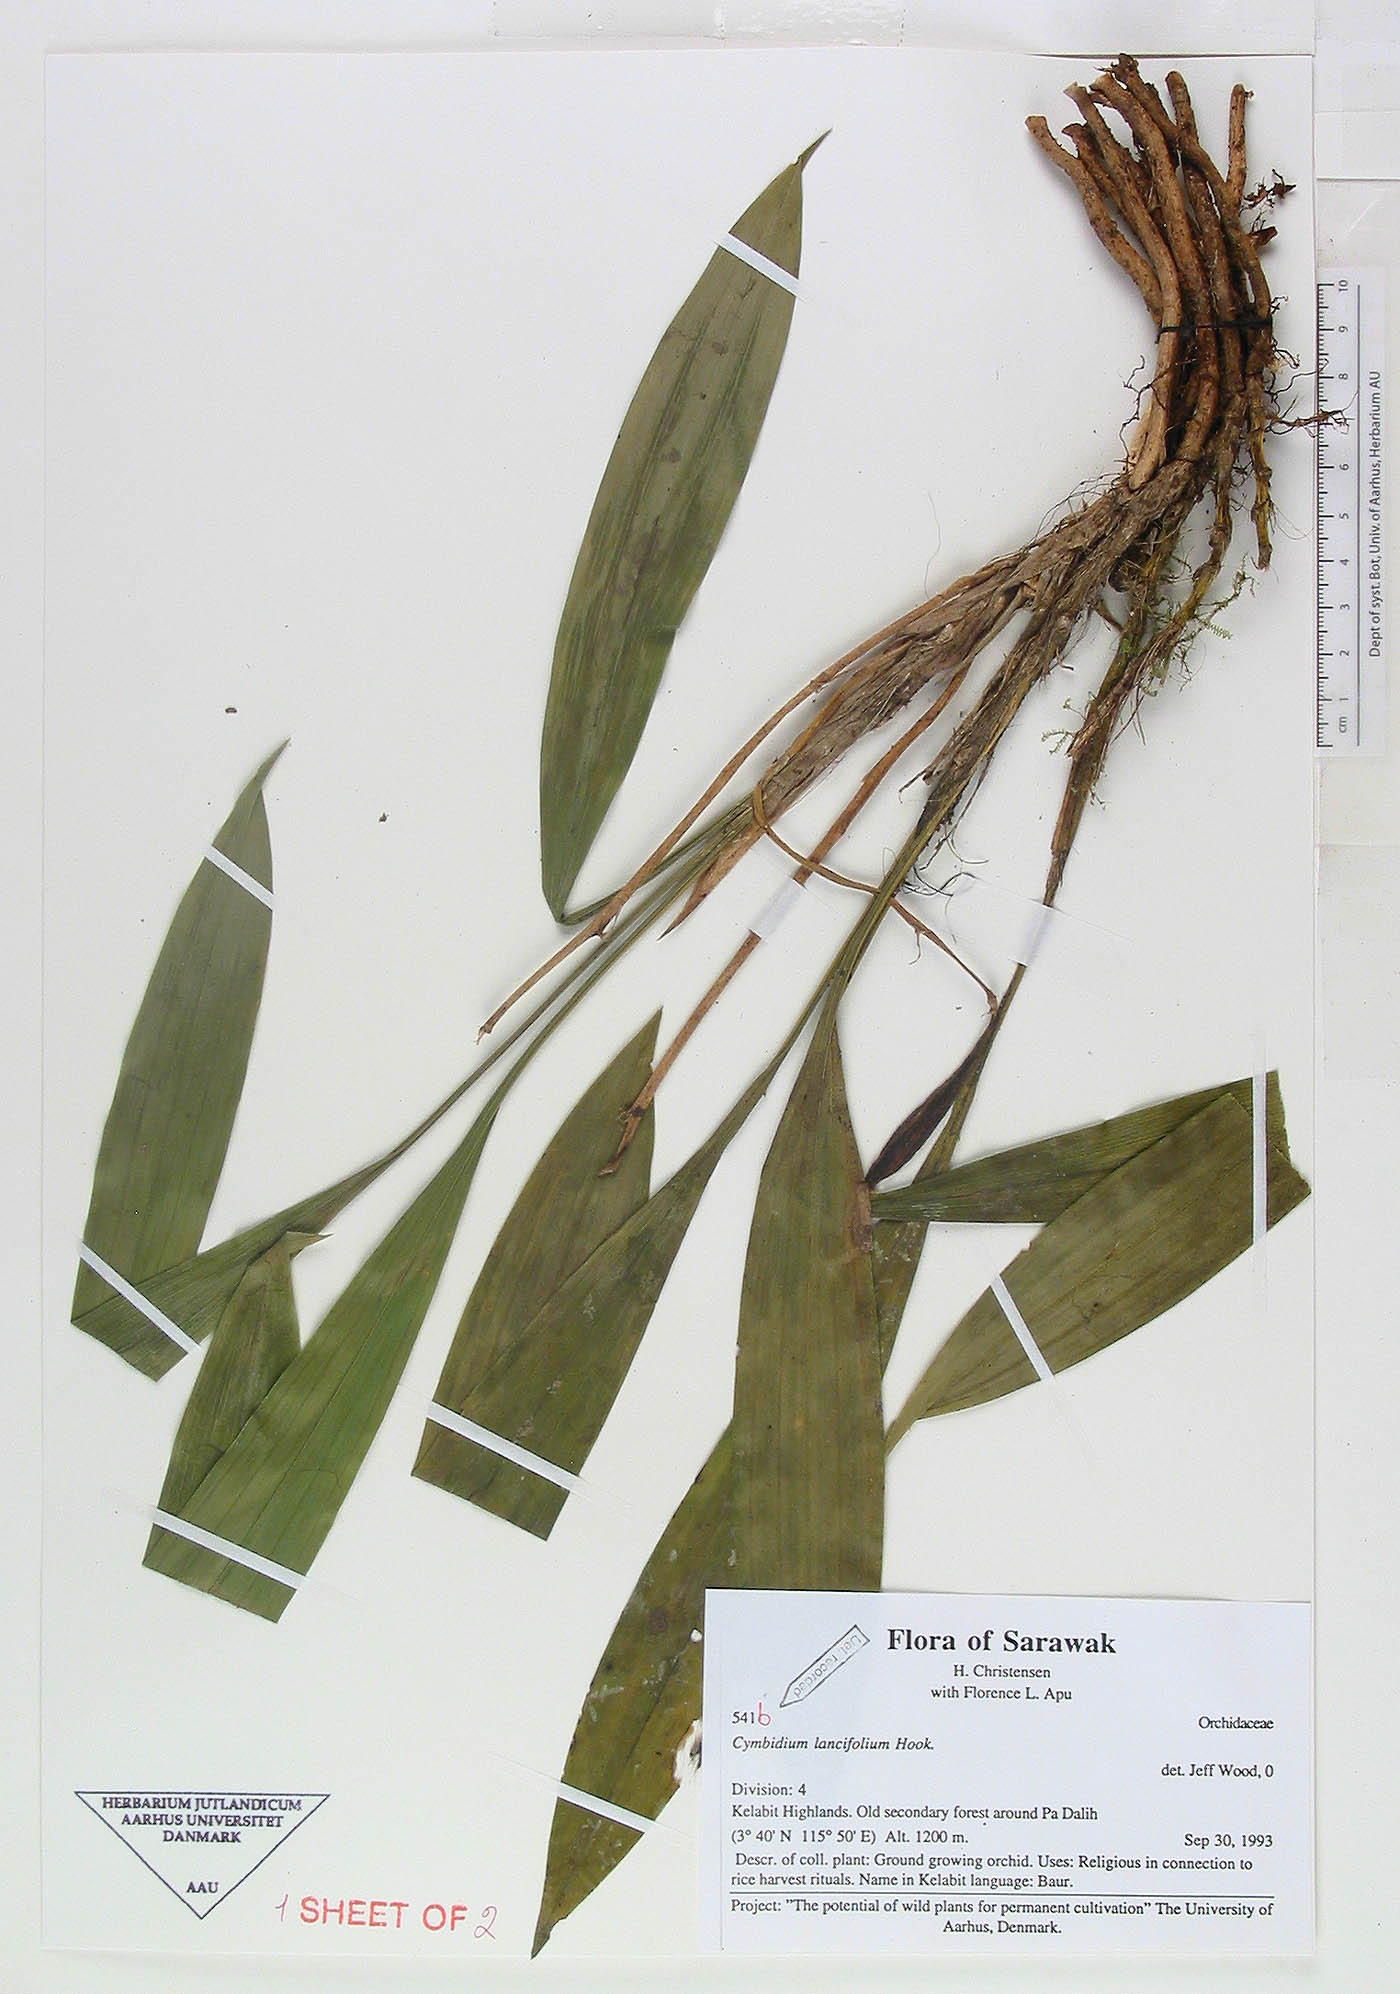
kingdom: Plantae
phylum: Tracheophyta
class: Liliopsida
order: Asparagales
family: Orchidaceae
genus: Cymbidium
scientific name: Cymbidium lancifolium
